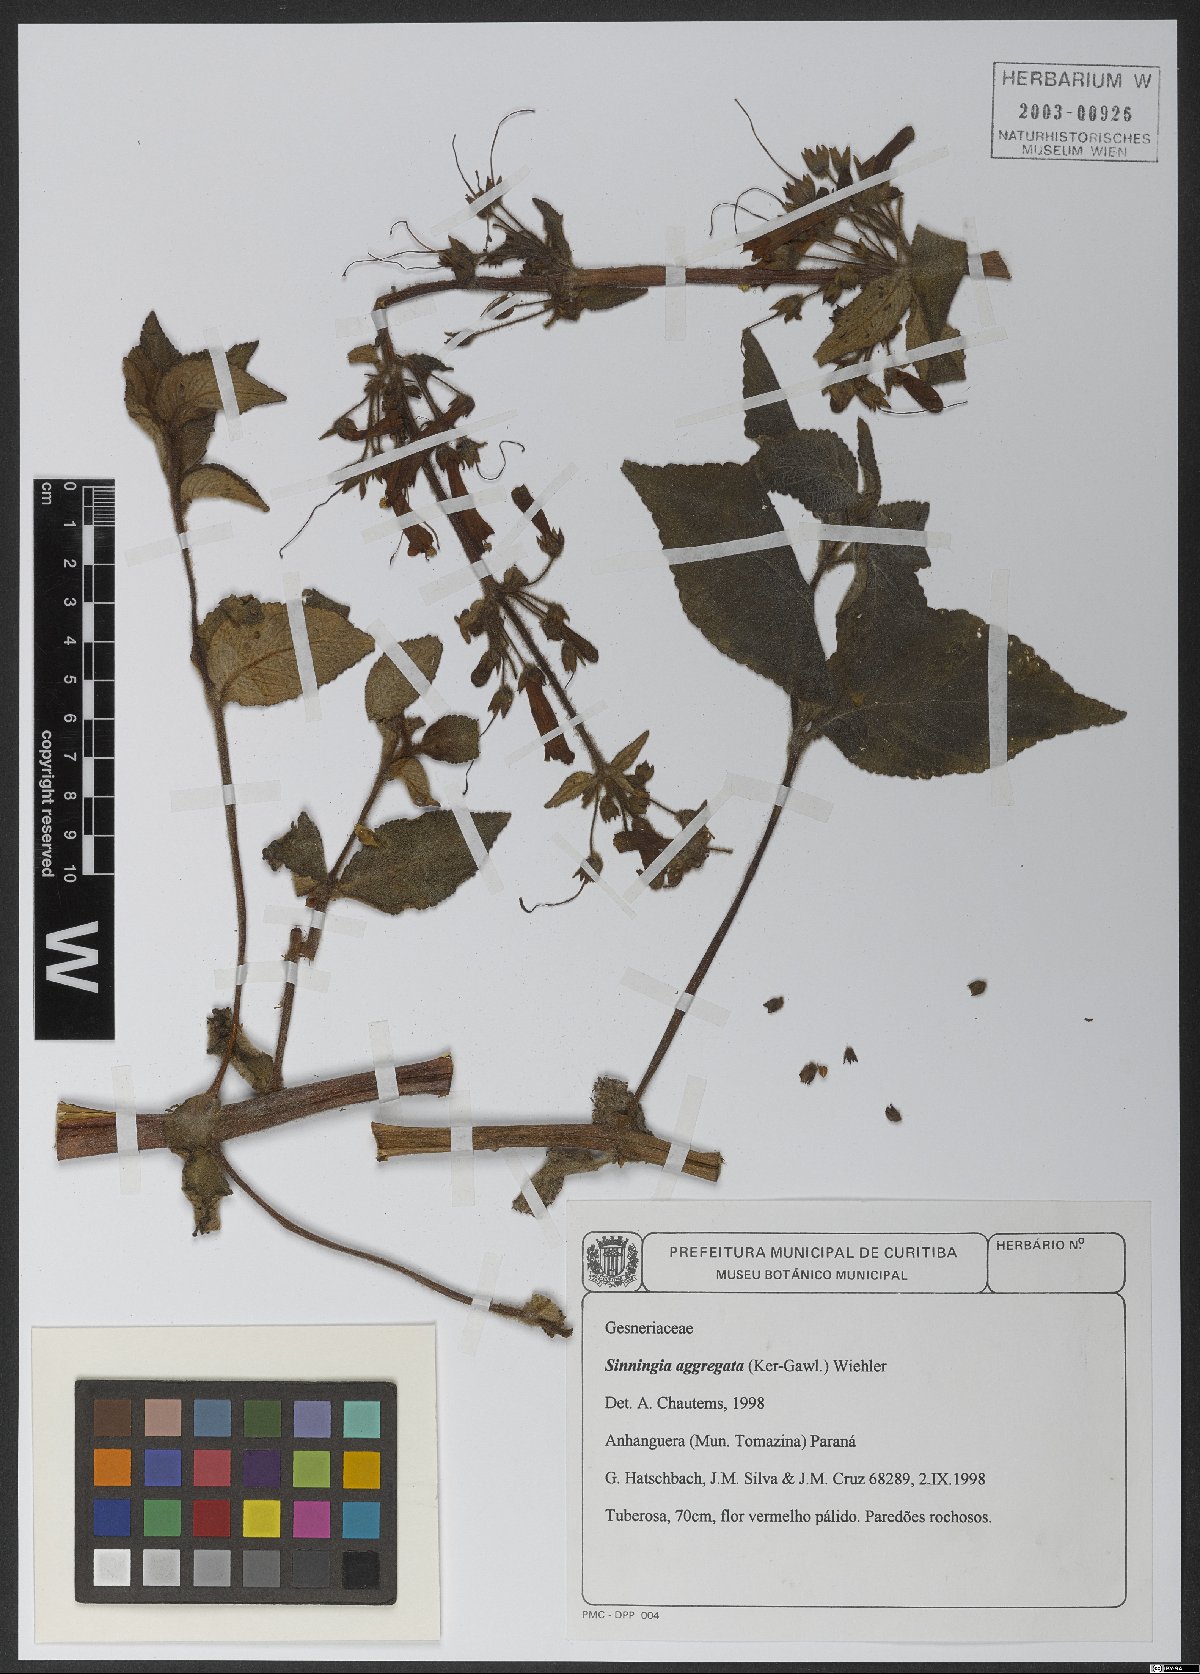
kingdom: Plantae
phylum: Tracheophyta
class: Magnoliopsida
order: Lamiales
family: Gesneriaceae
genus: Sinningia
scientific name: Sinningia aggregata
